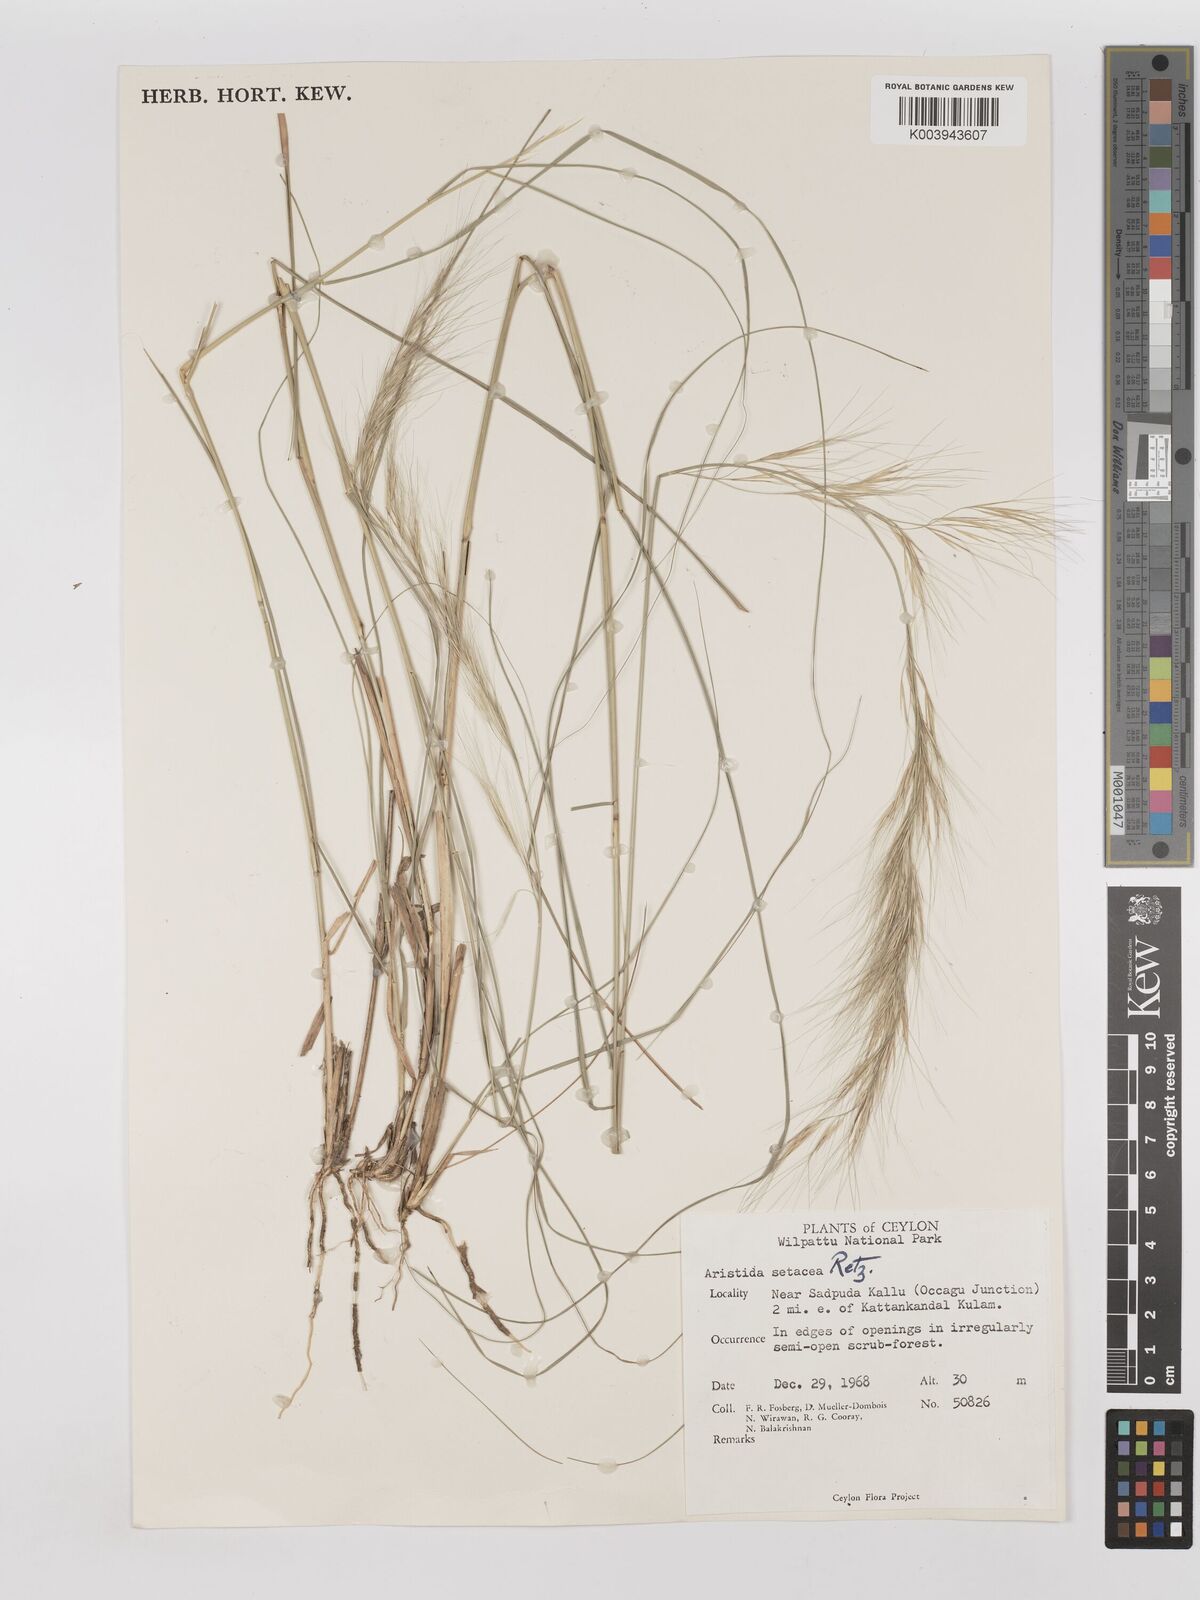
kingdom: Plantae
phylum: Tracheophyta
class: Liliopsida
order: Poales
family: Poaceae
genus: Aristida
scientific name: Aristida setacea
